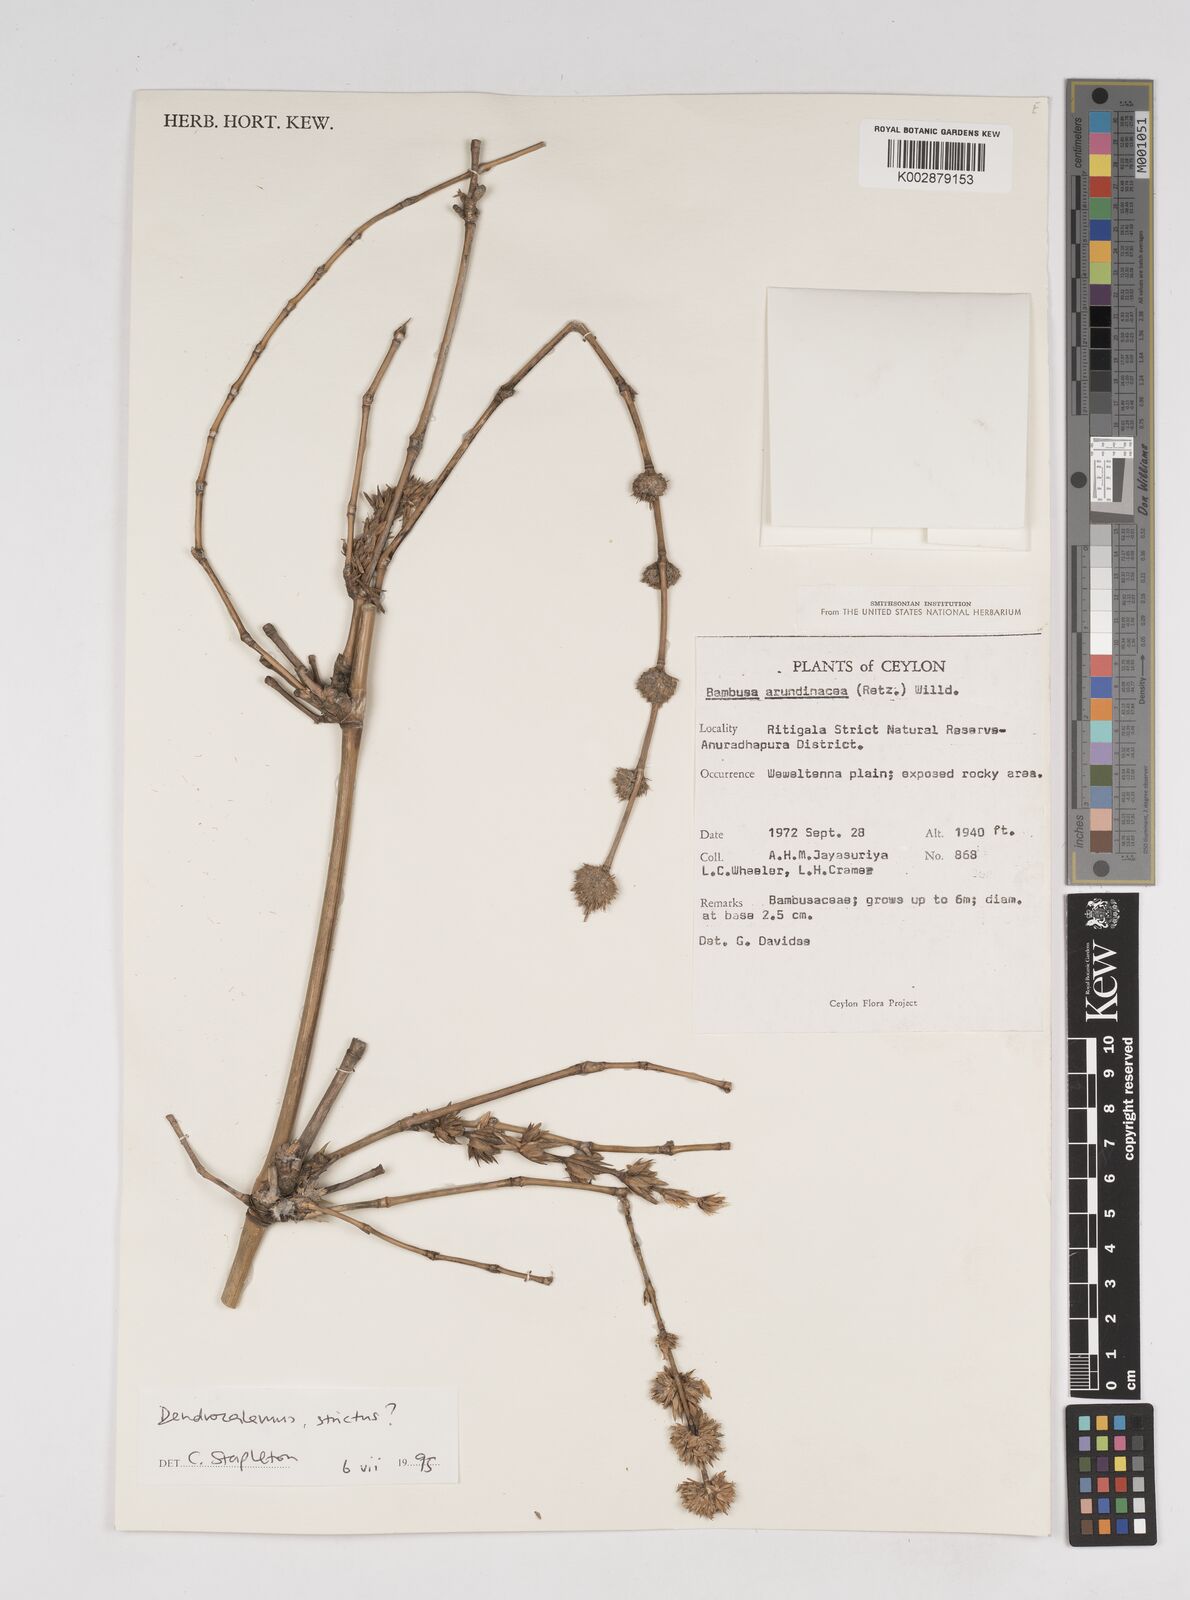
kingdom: Plantae
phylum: Tracheophyta
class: Liliopsida
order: Poales
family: Poaceae
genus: Dendrocalamus
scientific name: Dendrocalamus strictus
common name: Male bamboo
